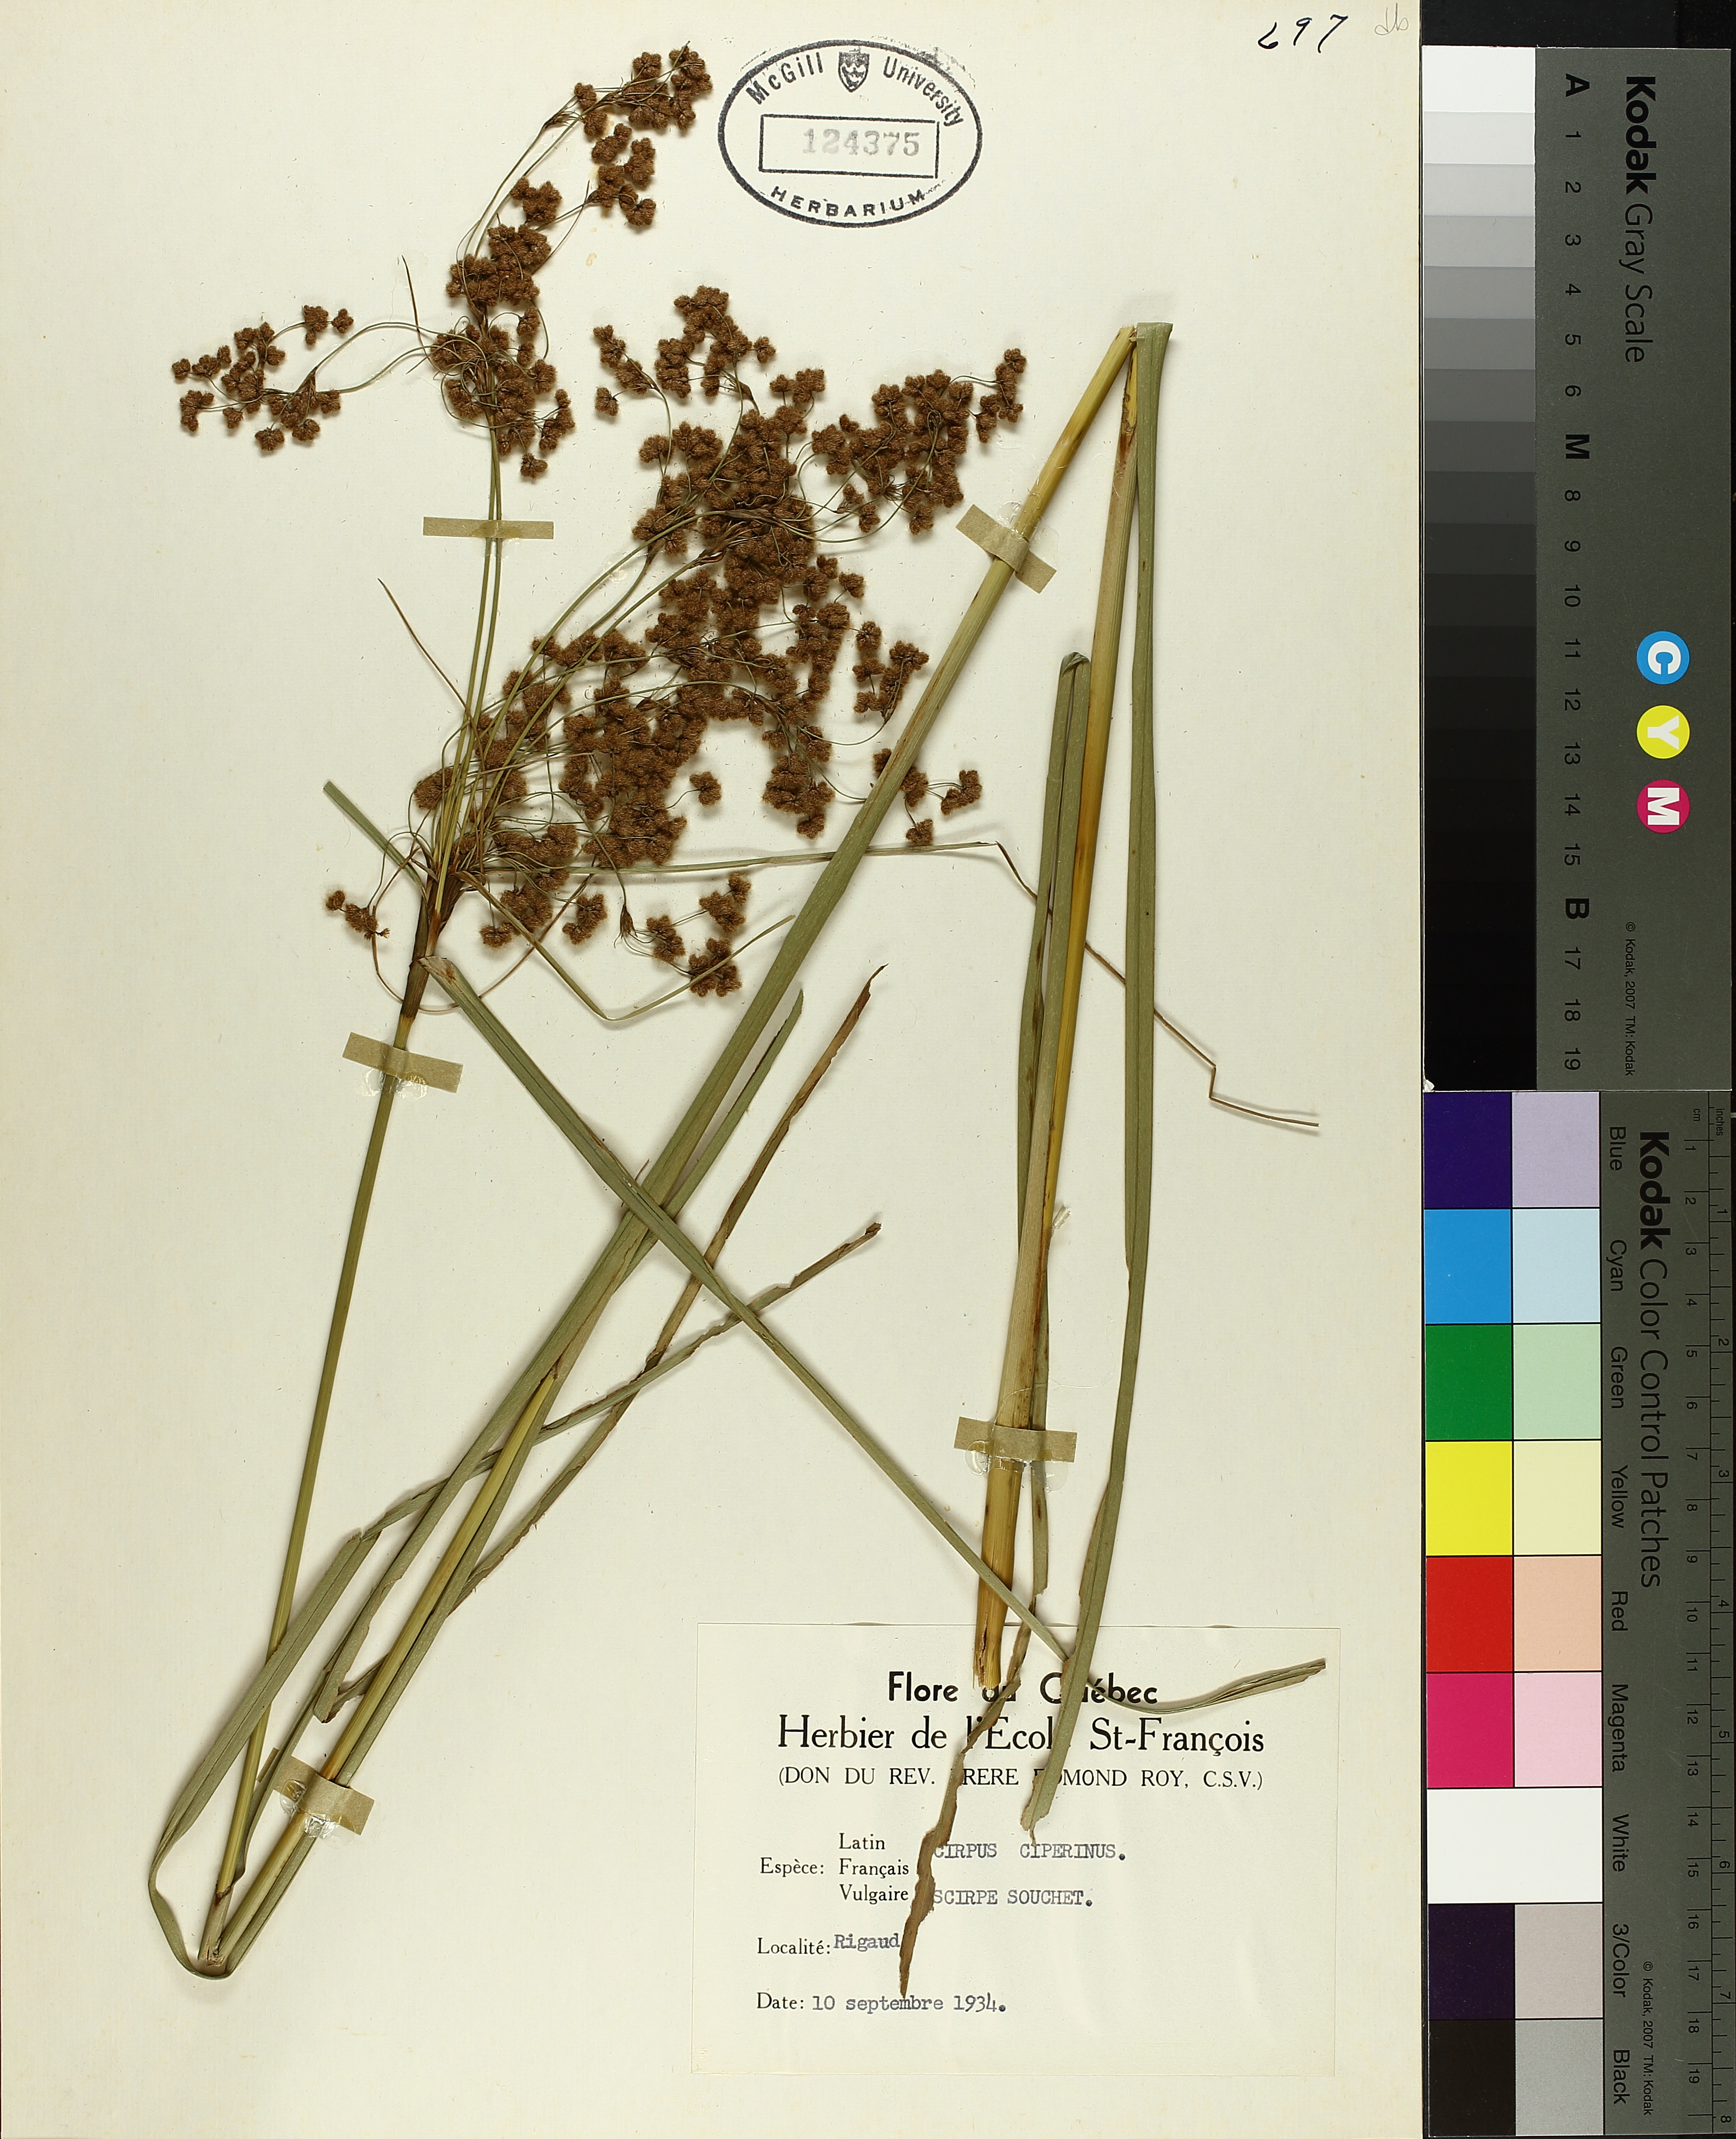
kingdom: Plantae
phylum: Tracheophyta
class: Liliopsida
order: Poales
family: Cyperaceae
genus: Scirpus
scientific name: Scirpus cyperinus
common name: Black-sheathed bulrush
